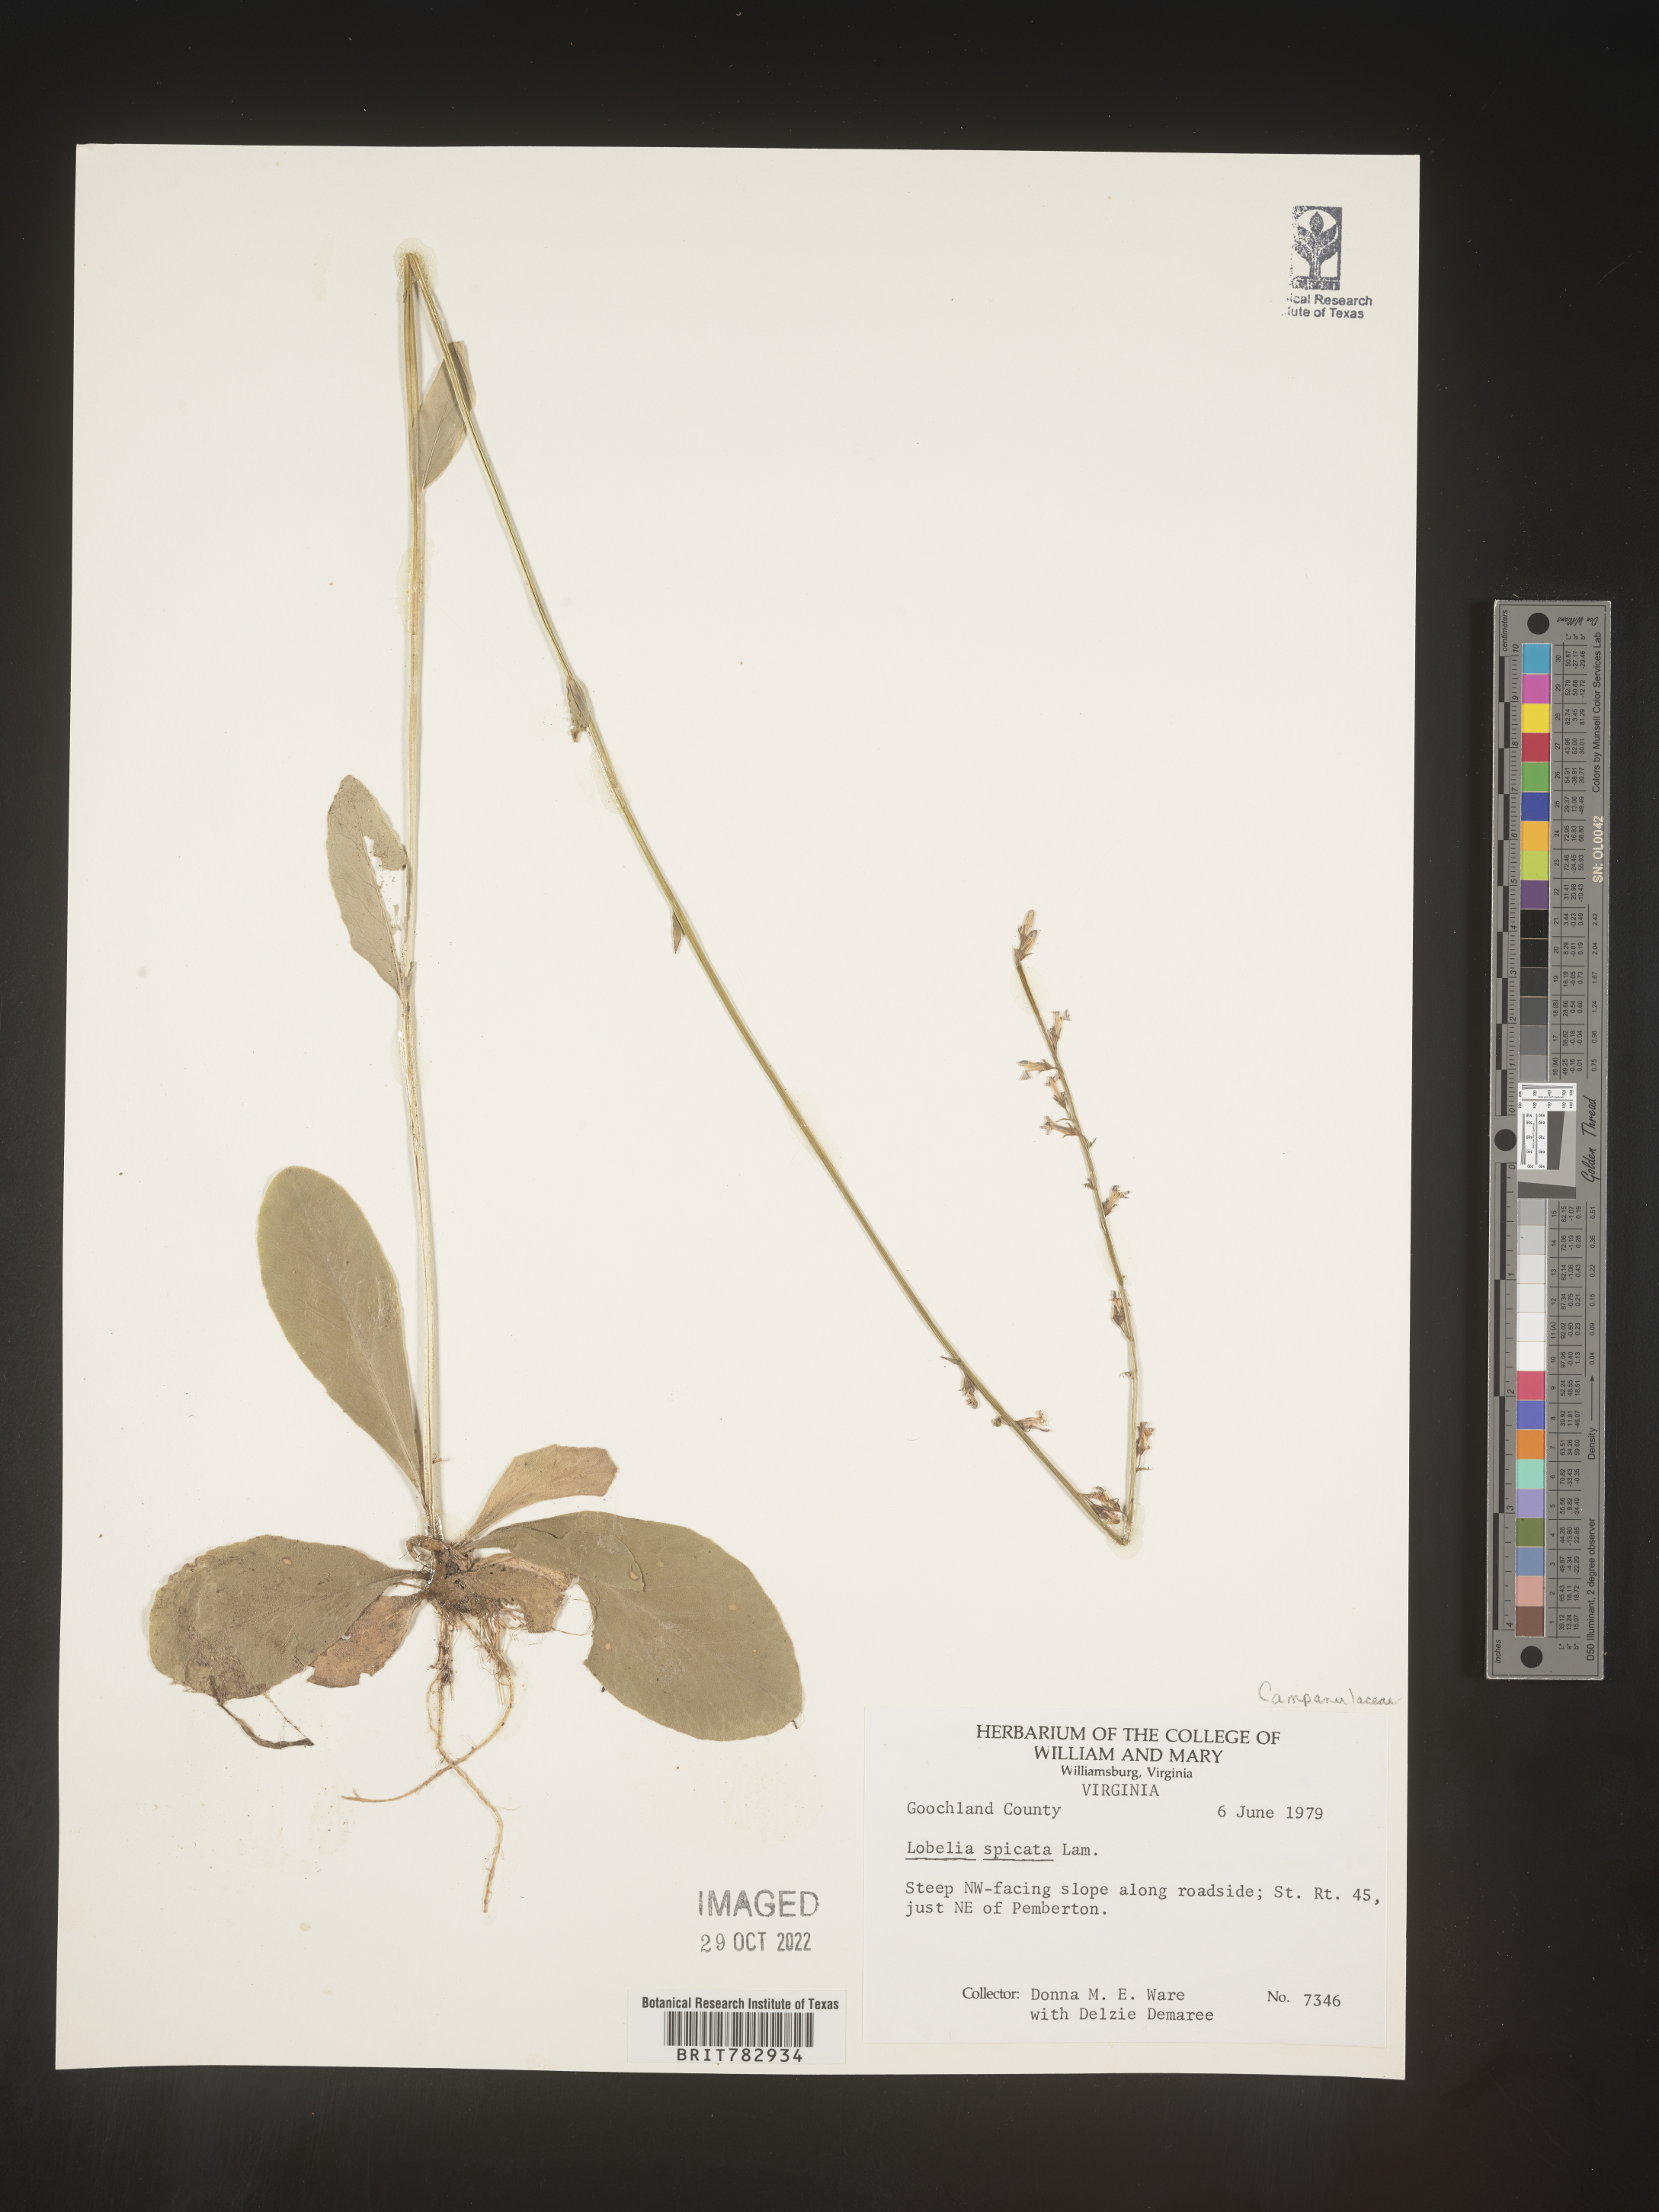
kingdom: Plantae
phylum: Tracheophyta
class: Magnoliopsida
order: Asterales
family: Campanulaceae
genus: Lobelia
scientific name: Lobelia spicata
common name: Pale-spike lobelia
